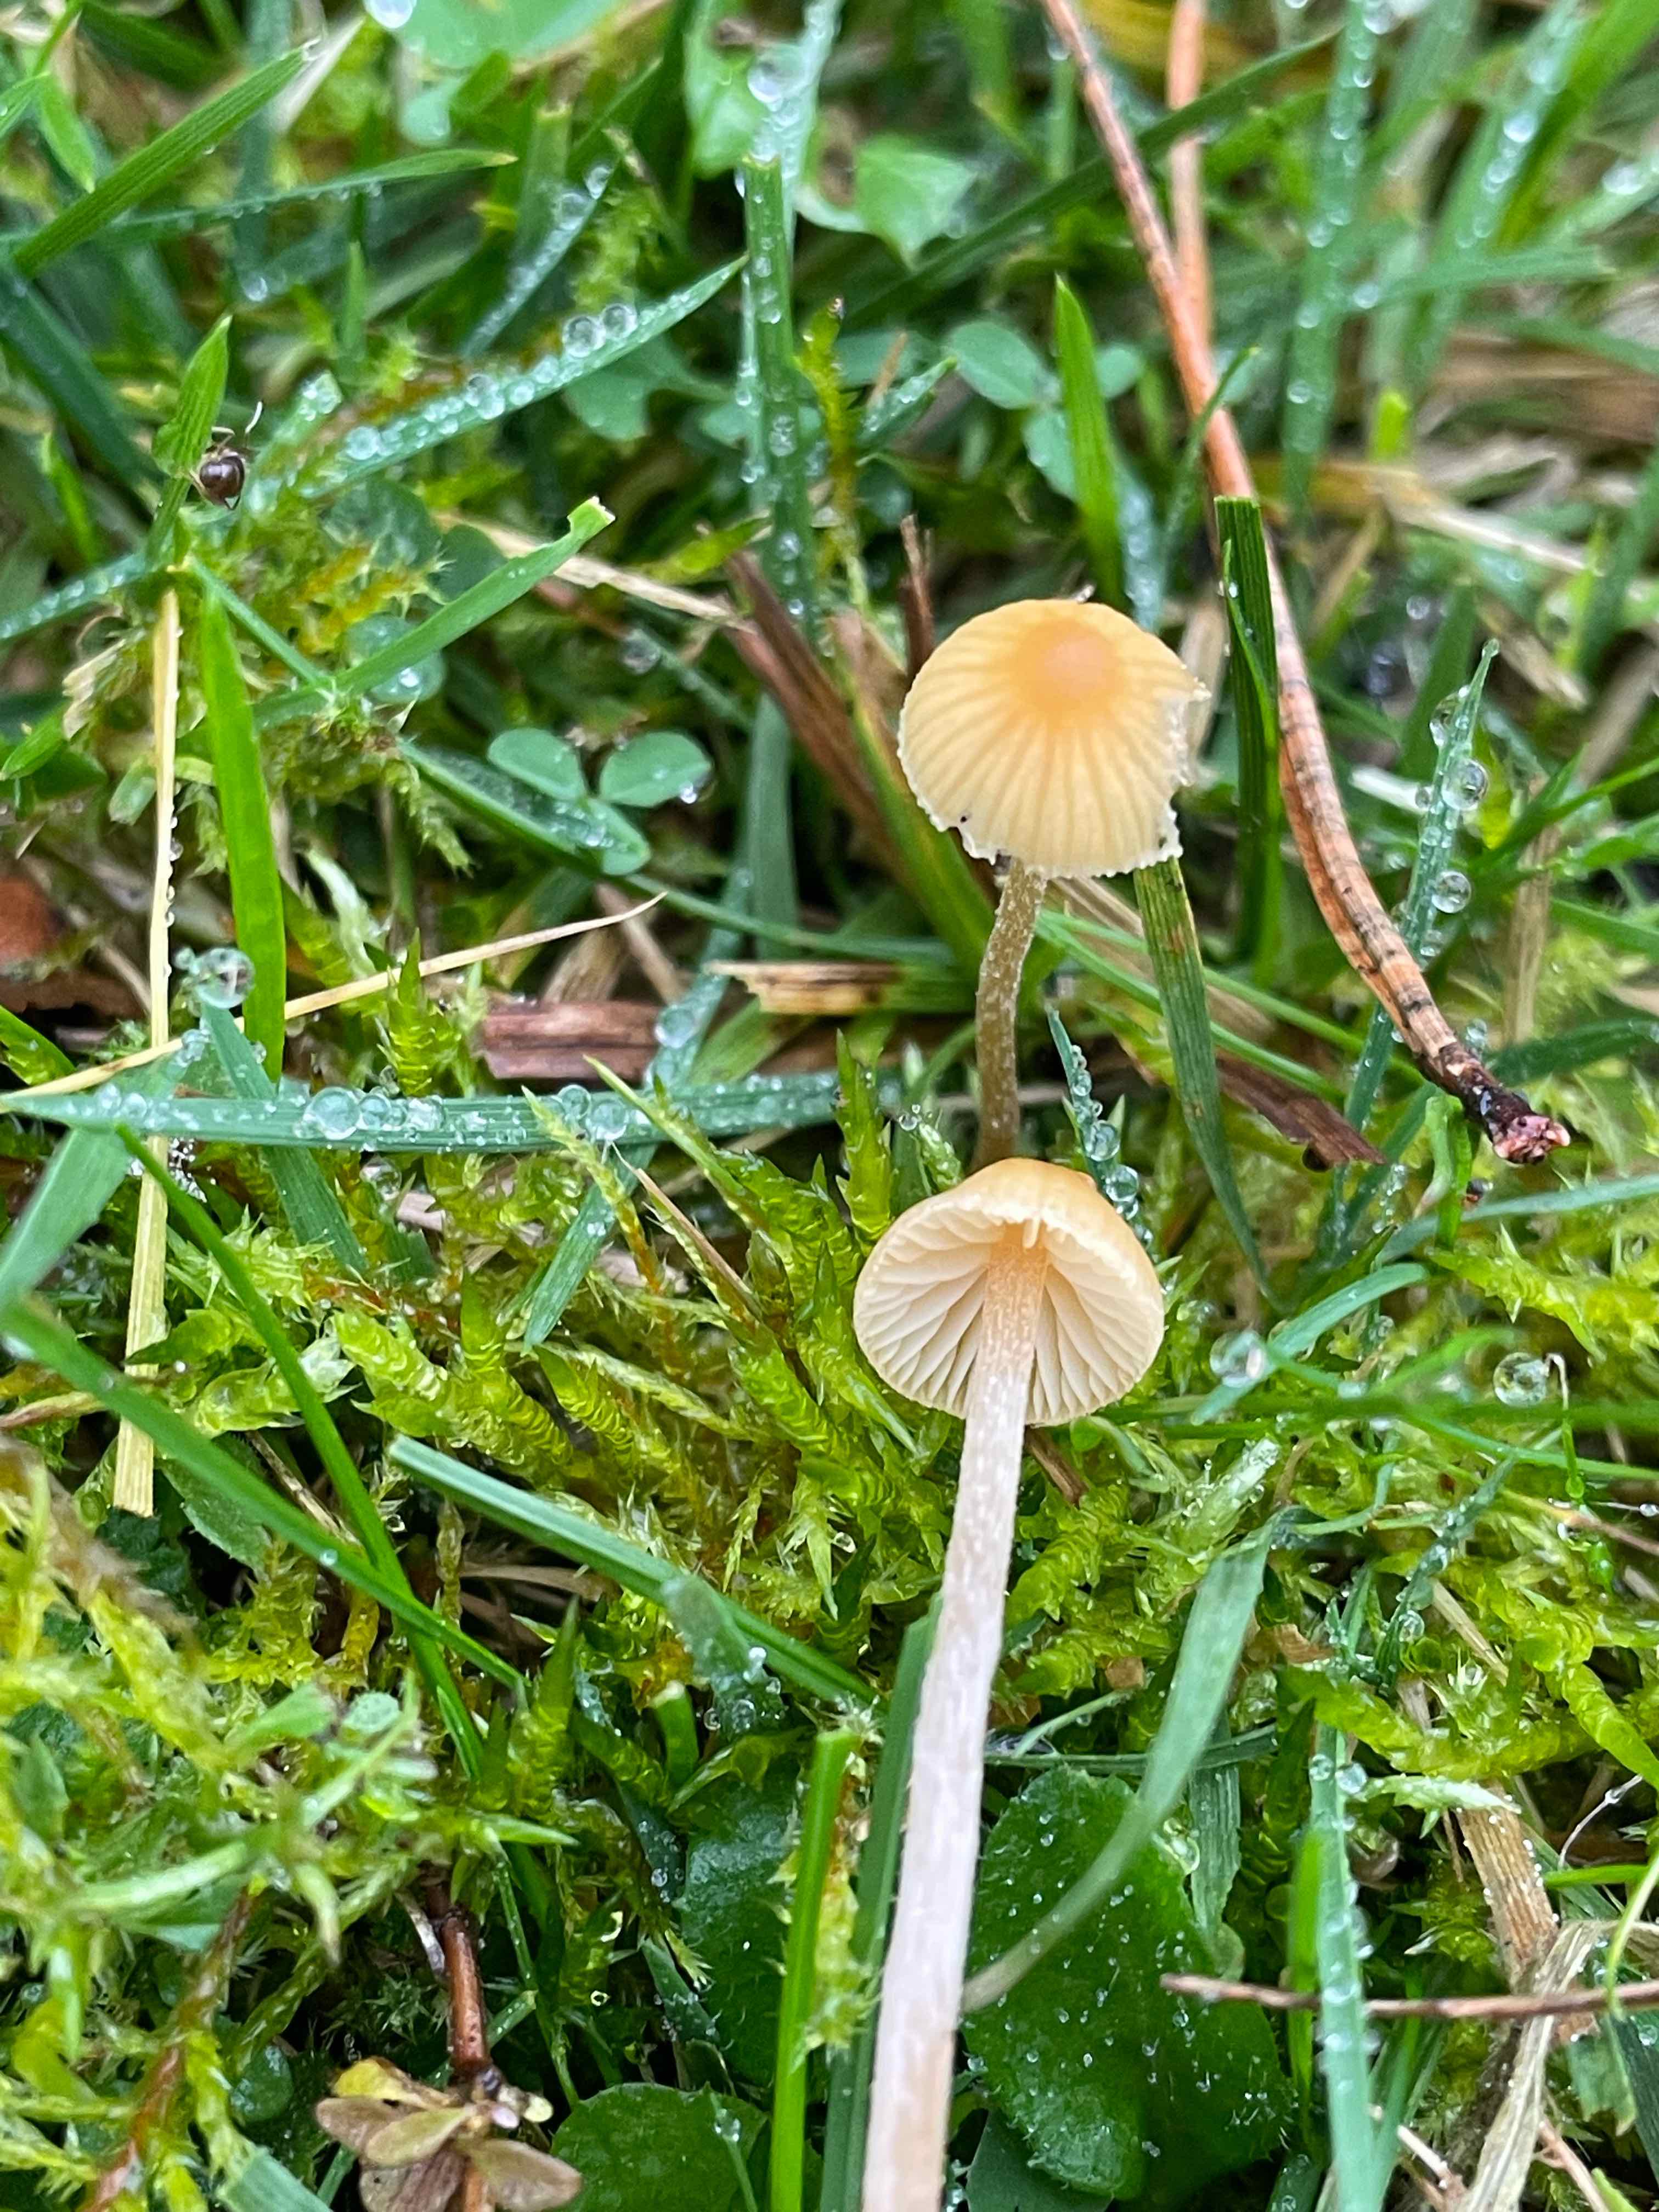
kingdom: Fungi
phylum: Basidiomycota
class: Agaricomycetes
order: Agaricales
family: Hymenogastraceae
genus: Galerina
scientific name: Galerina
